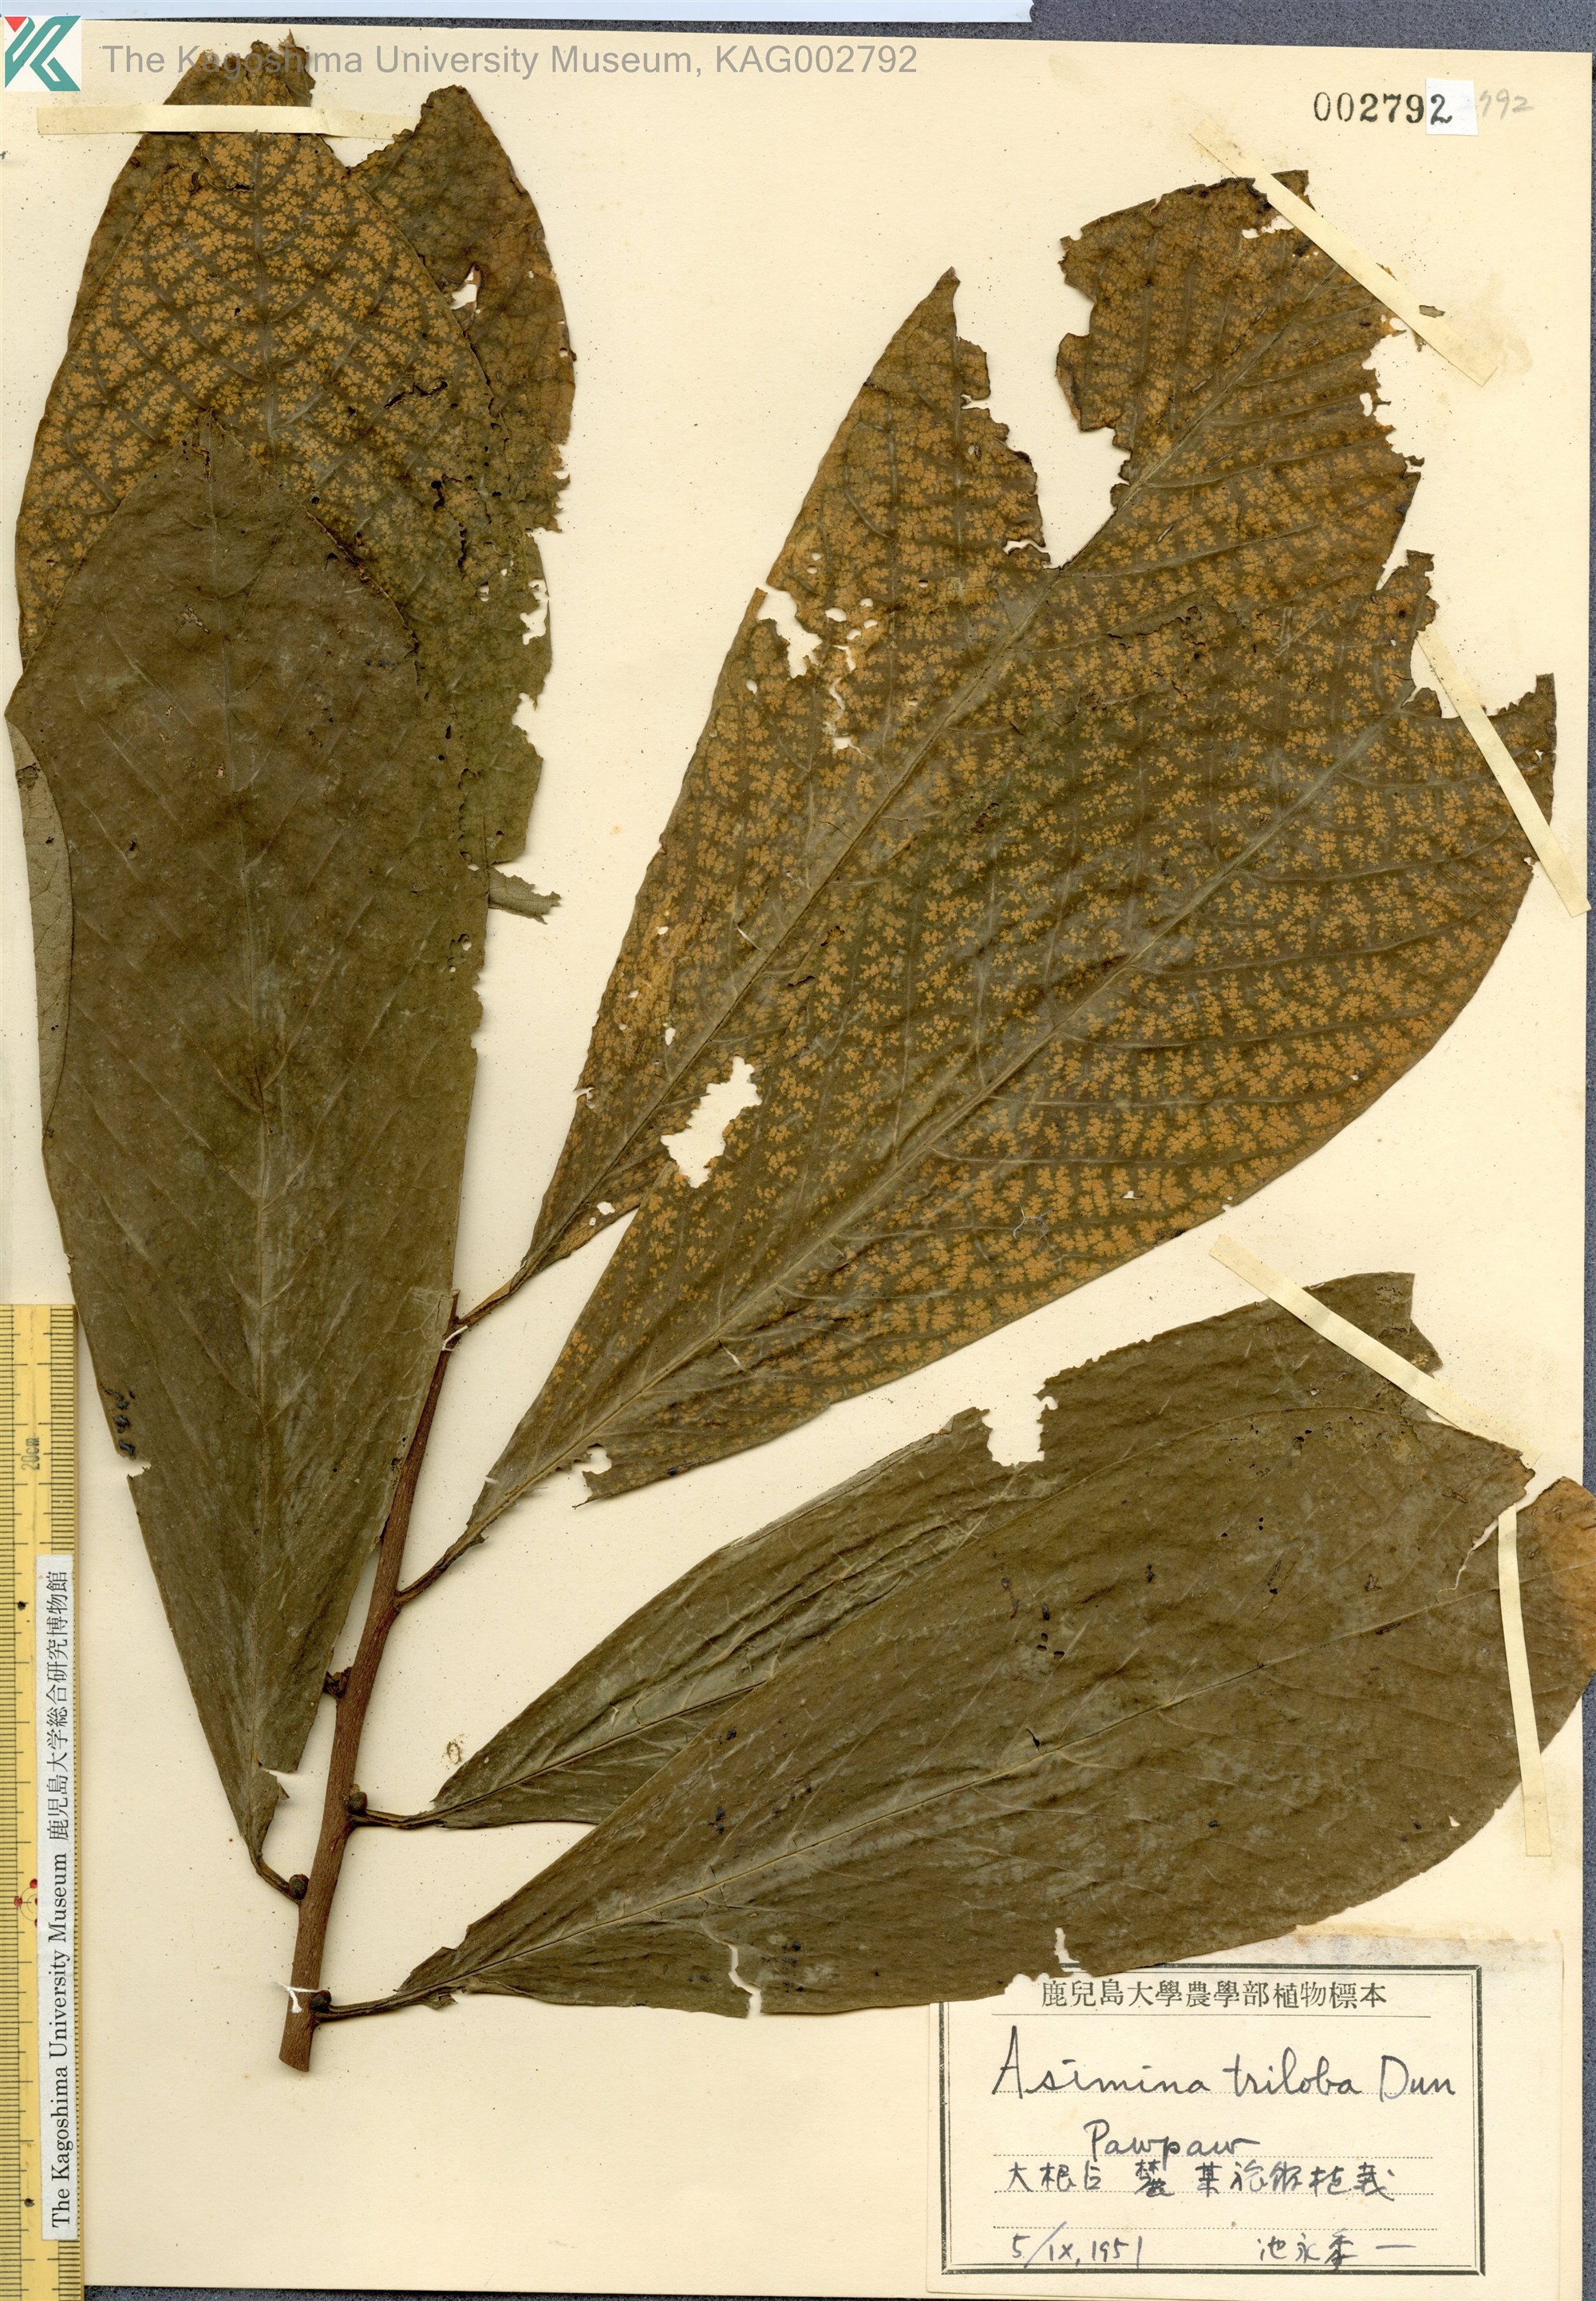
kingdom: Plantae
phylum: Tracheophyta
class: Magnoliopsida
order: Magnoliales
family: Annonaceae
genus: Asimina
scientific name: Asimina triloba
